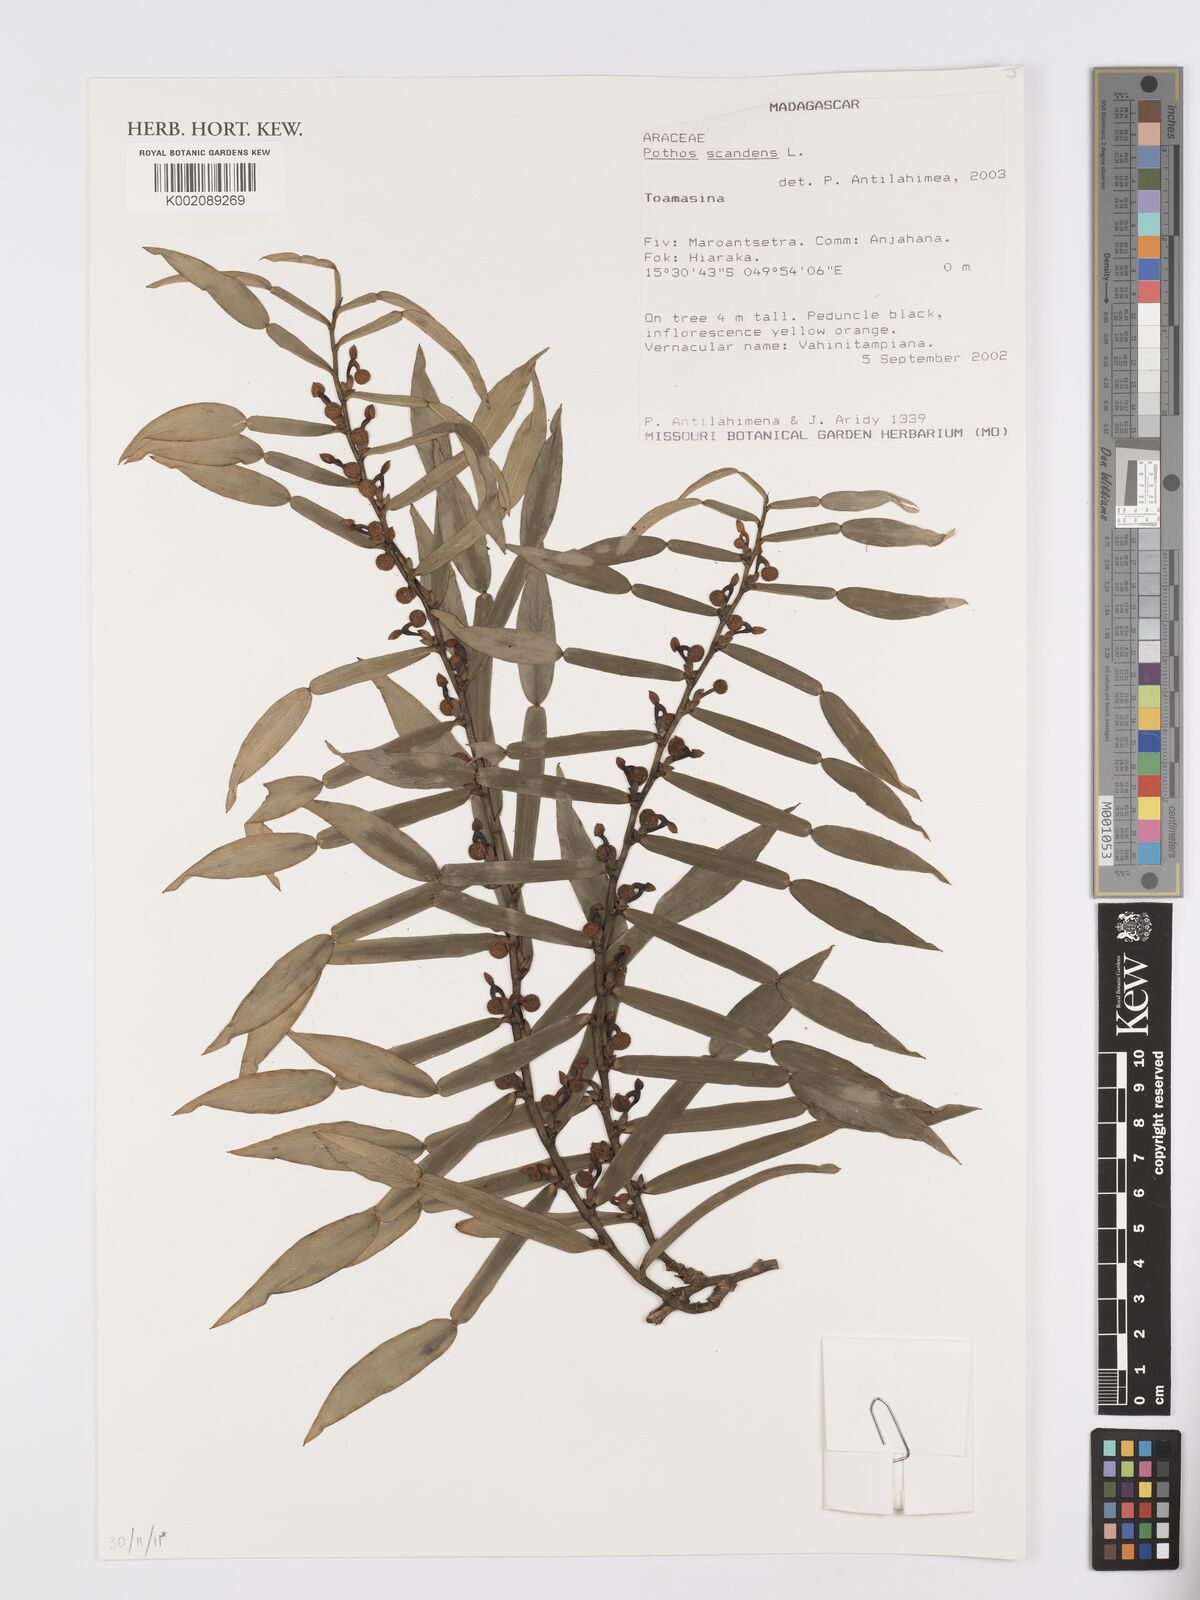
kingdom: Plantae
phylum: Tracheophyta
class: Liliopsida
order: Alismatales
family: Araceae
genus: Pothos
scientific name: Pothos scandens
